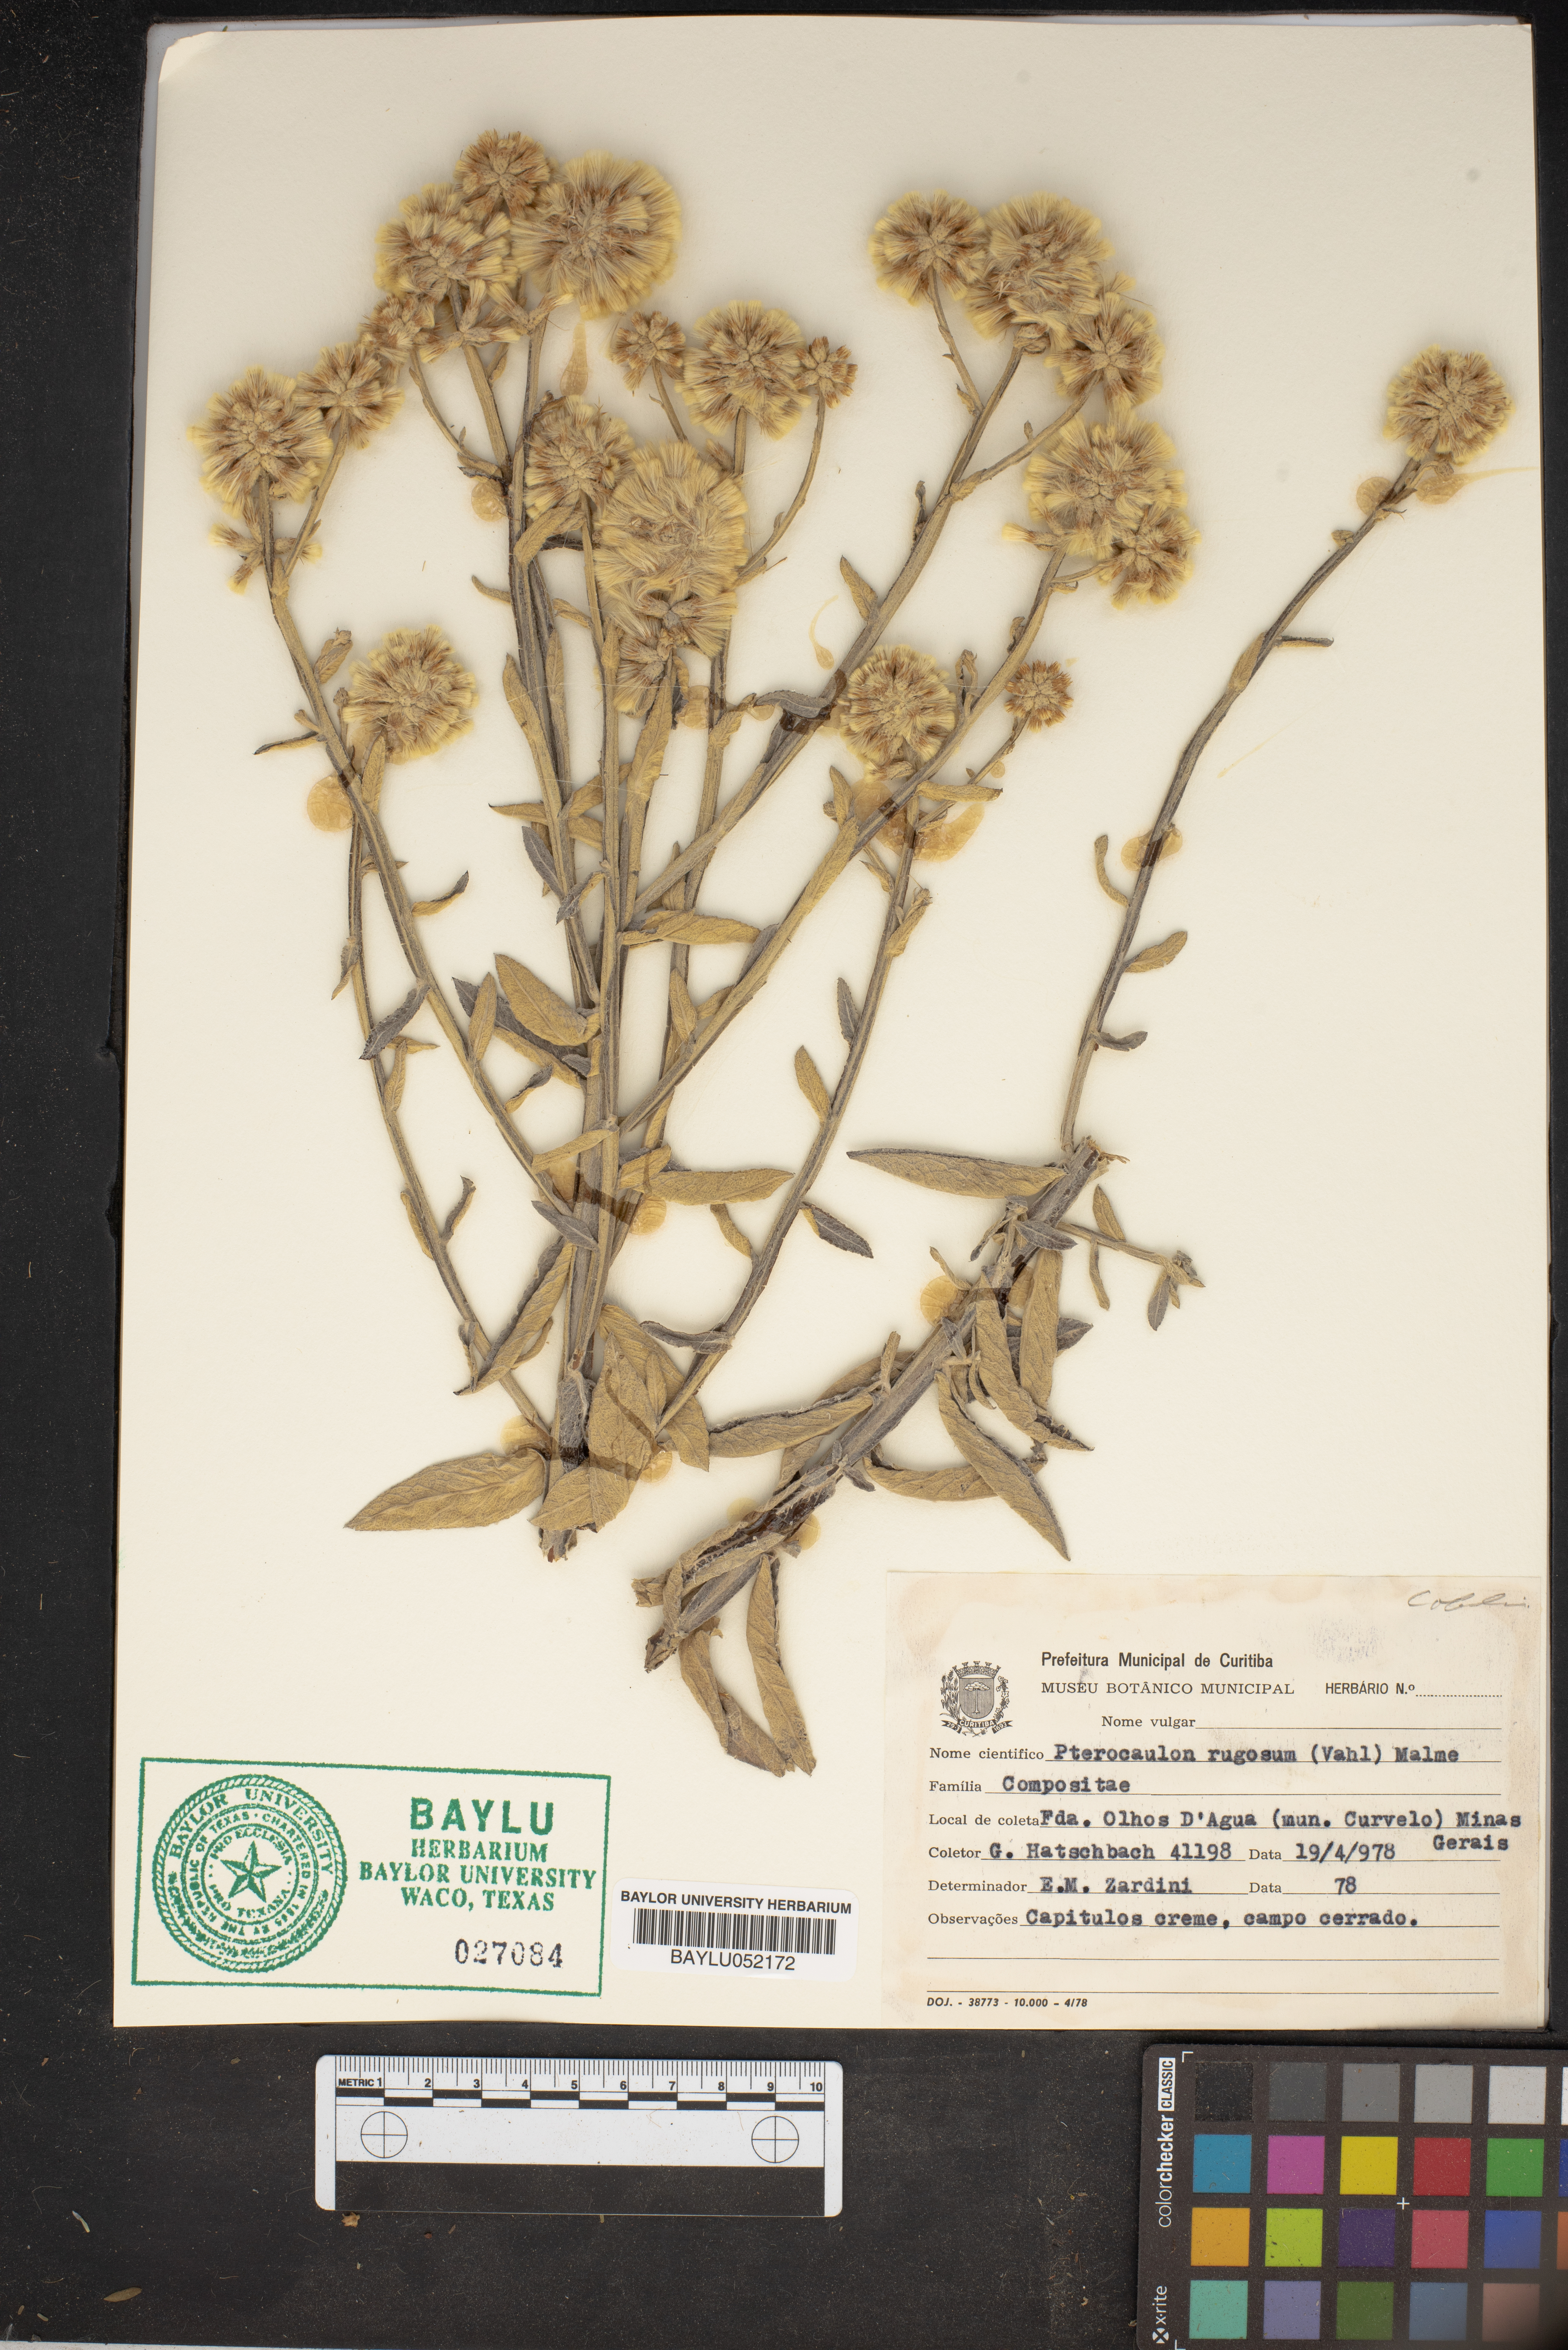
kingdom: Plantae
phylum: Tracheophyta
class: Magnoliopsida
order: Asterales
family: Asteraceae
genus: Pterocaulon
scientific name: Pterocaulon rugosum
